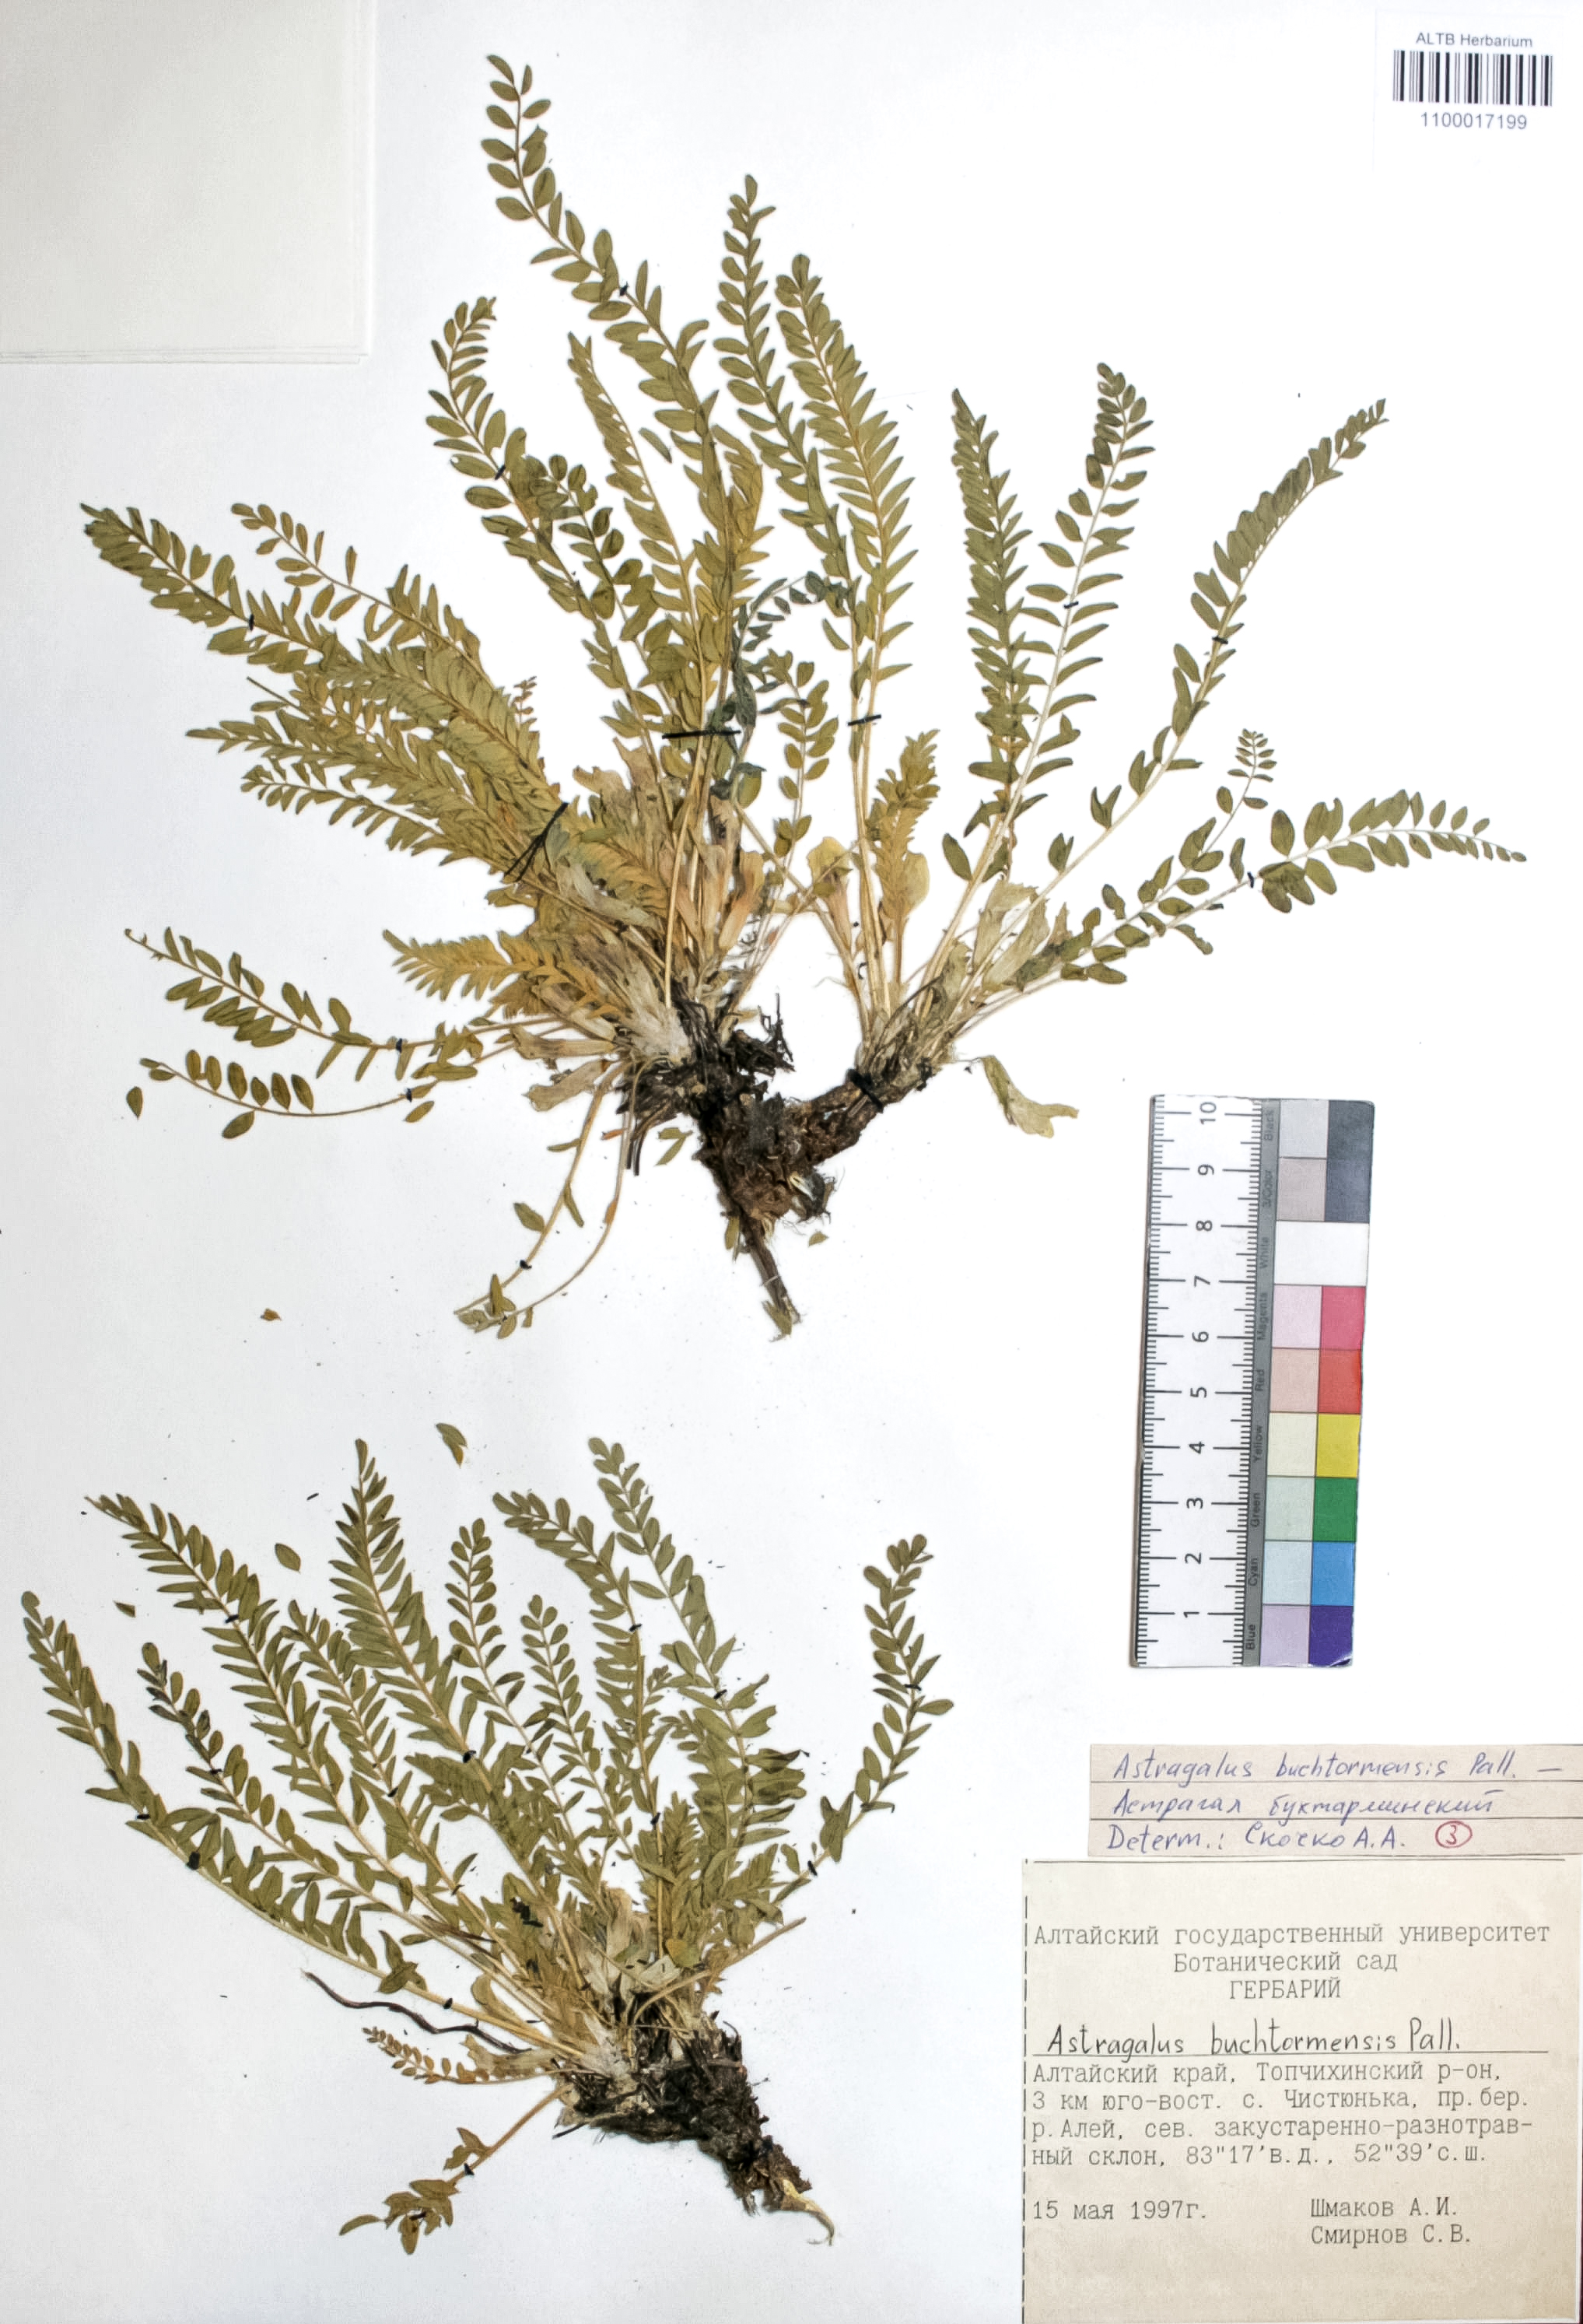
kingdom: Plantae
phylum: Tracheophyta
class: Magnoliopsida
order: Fabales
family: Fabaceae
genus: Astragalus
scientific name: Astragalus buchtormensis
